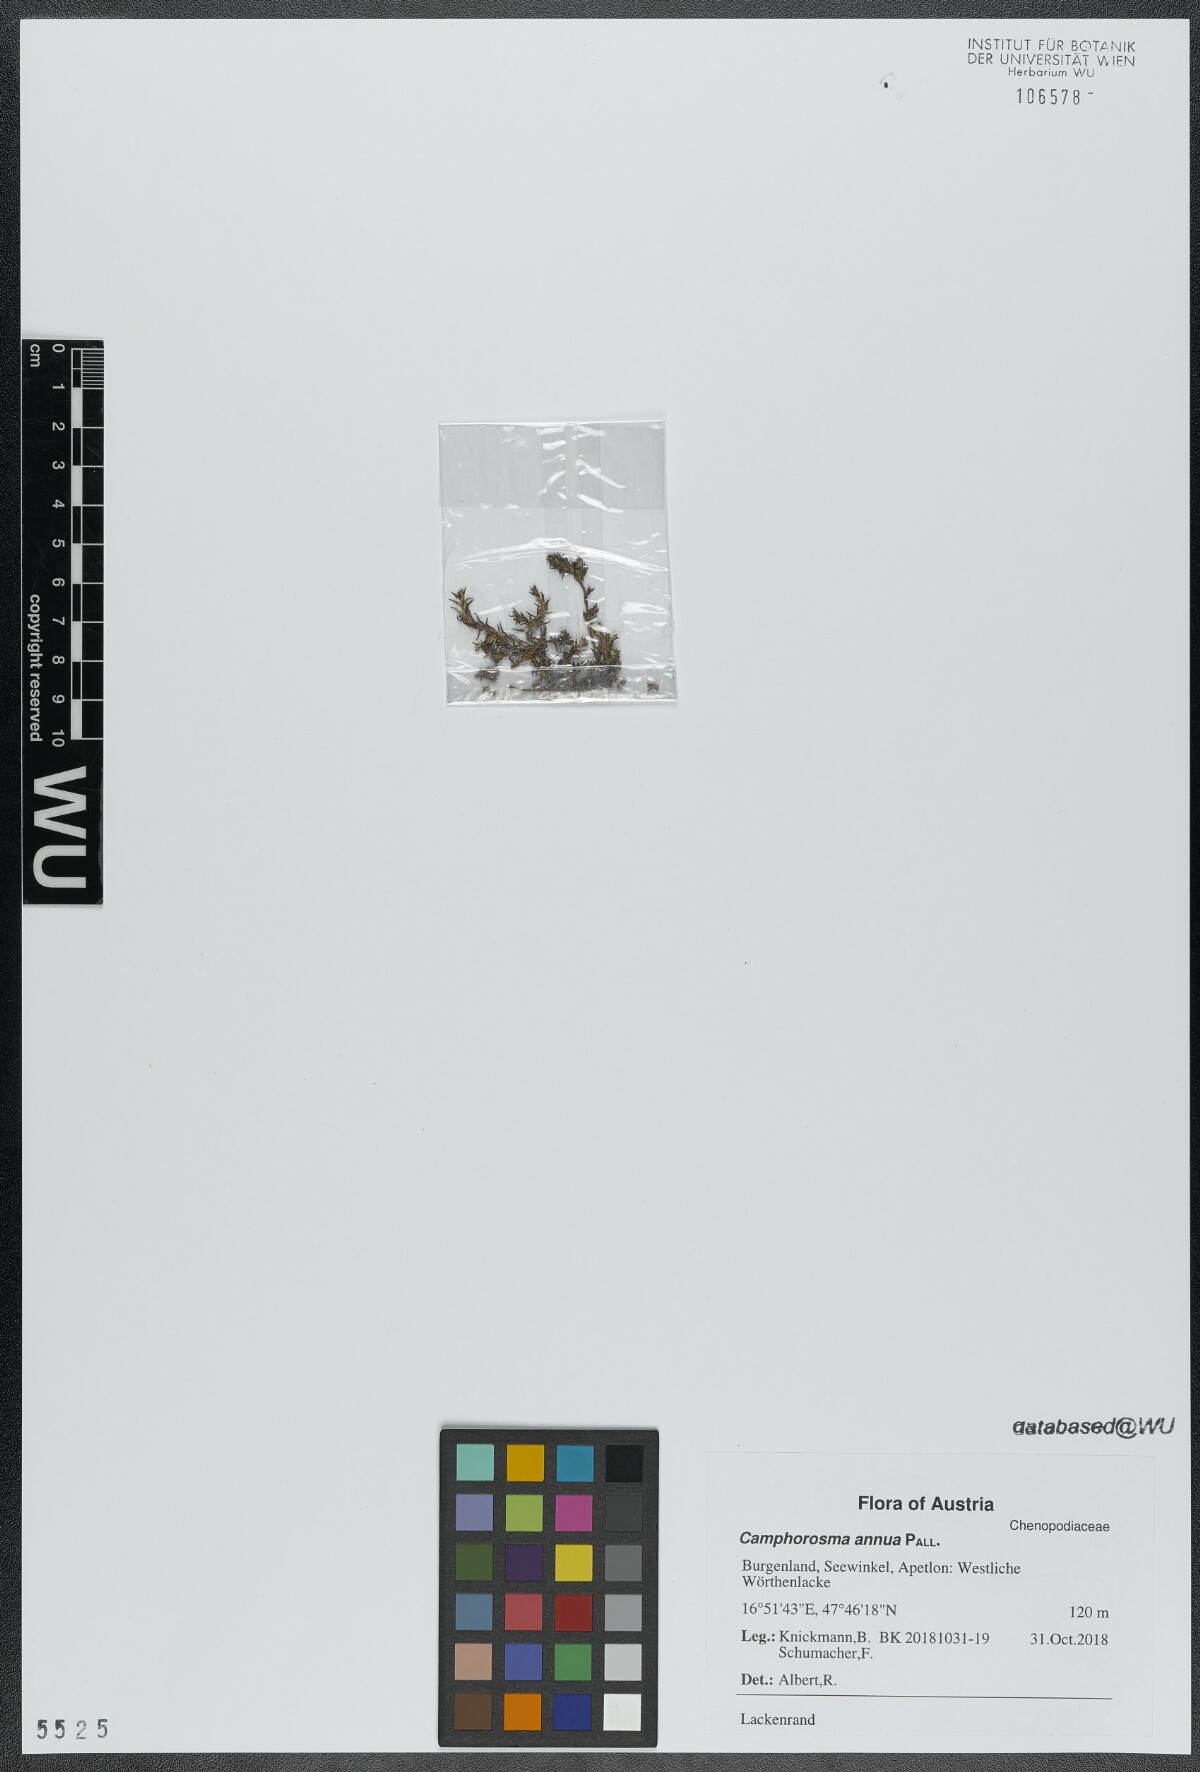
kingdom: Plantae
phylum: Tracheophyta
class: Magnoliopsida
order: Caryophyllales
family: Amaranthaceae
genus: Camphorosma
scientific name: Camphorosma annua
